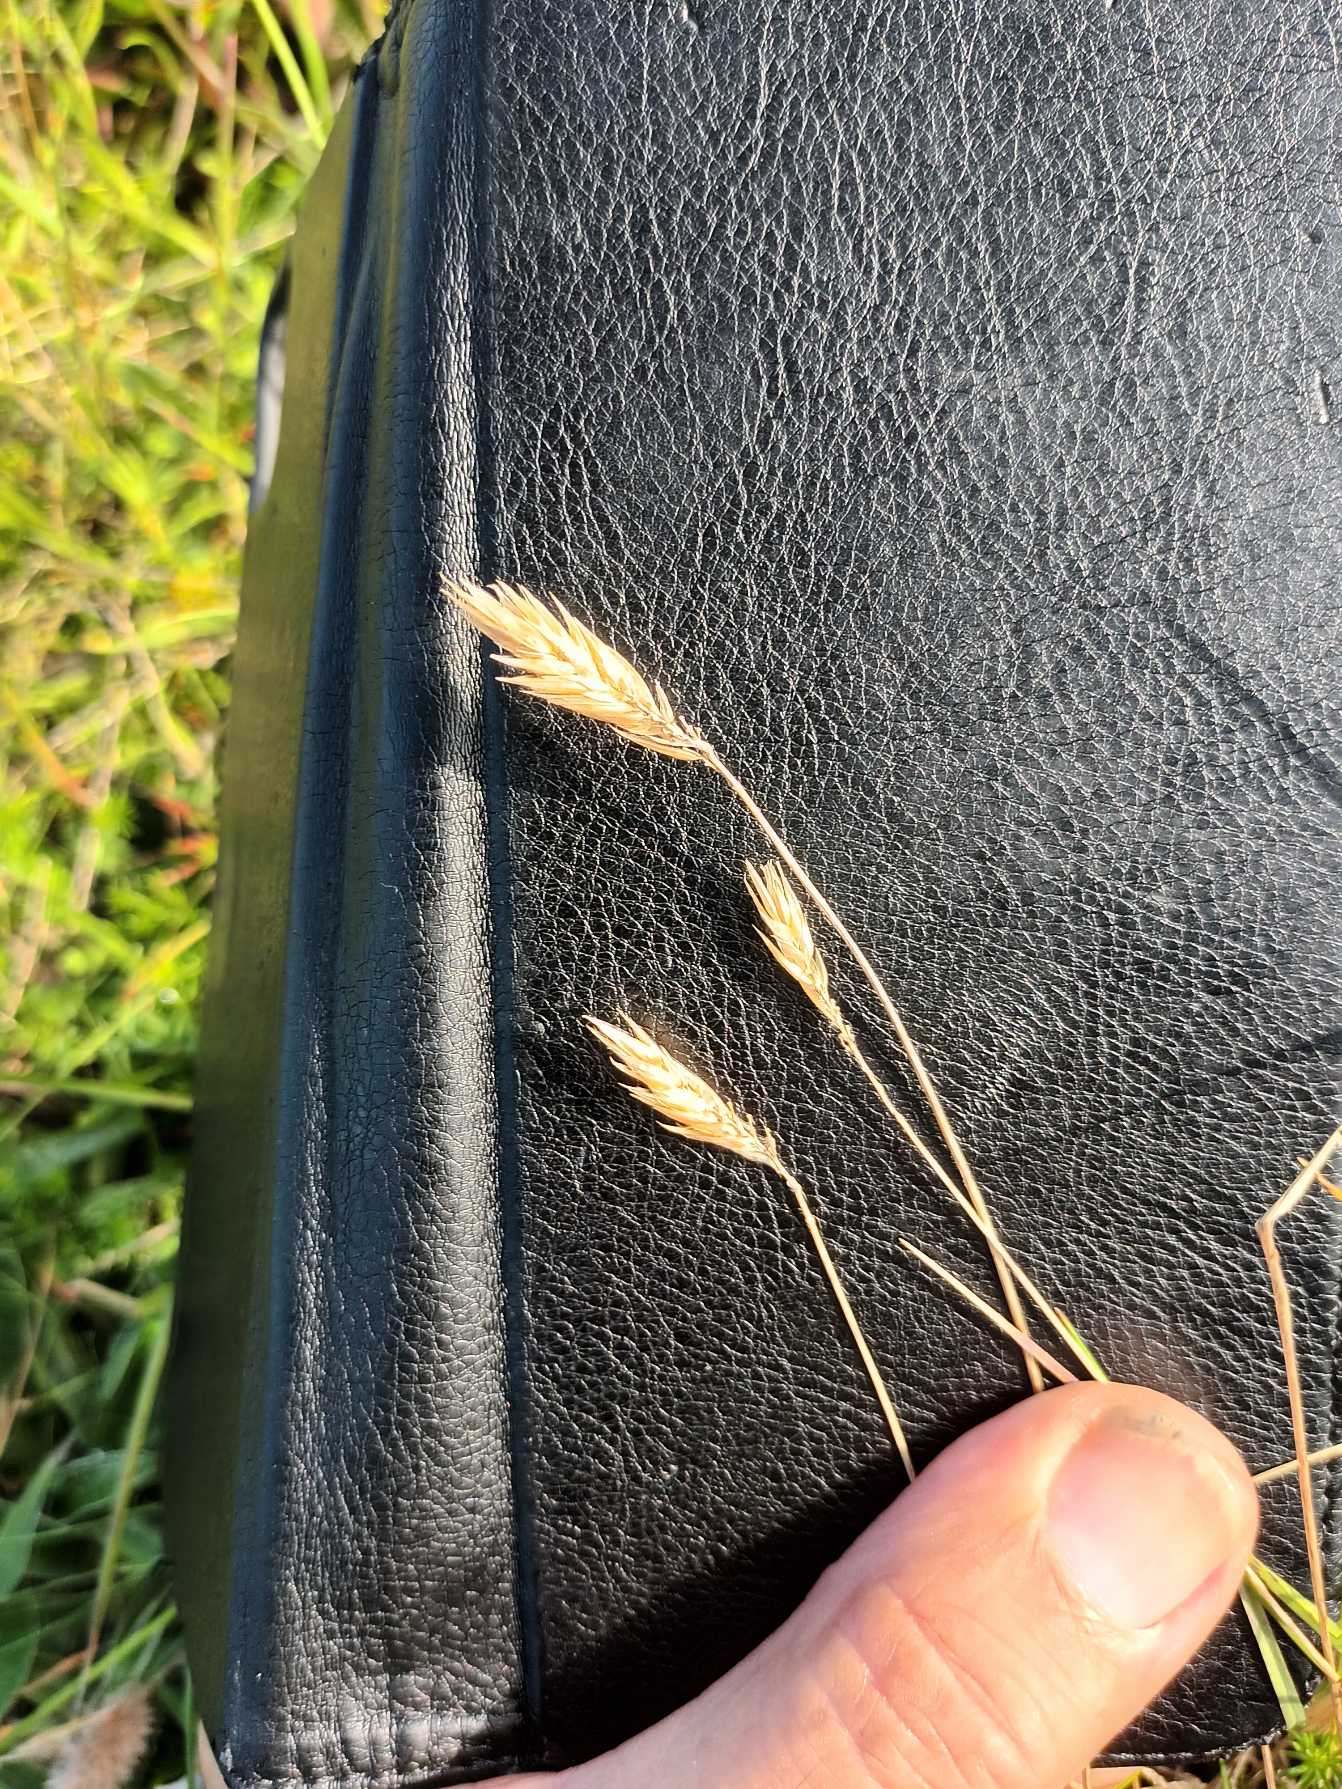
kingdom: Plantae
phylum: Tracheophyta
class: Liliopsida
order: Poales
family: Poaceae
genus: Anthoxanthum
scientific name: Anthoxanthum odoratum
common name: Vellugtende gulaks
